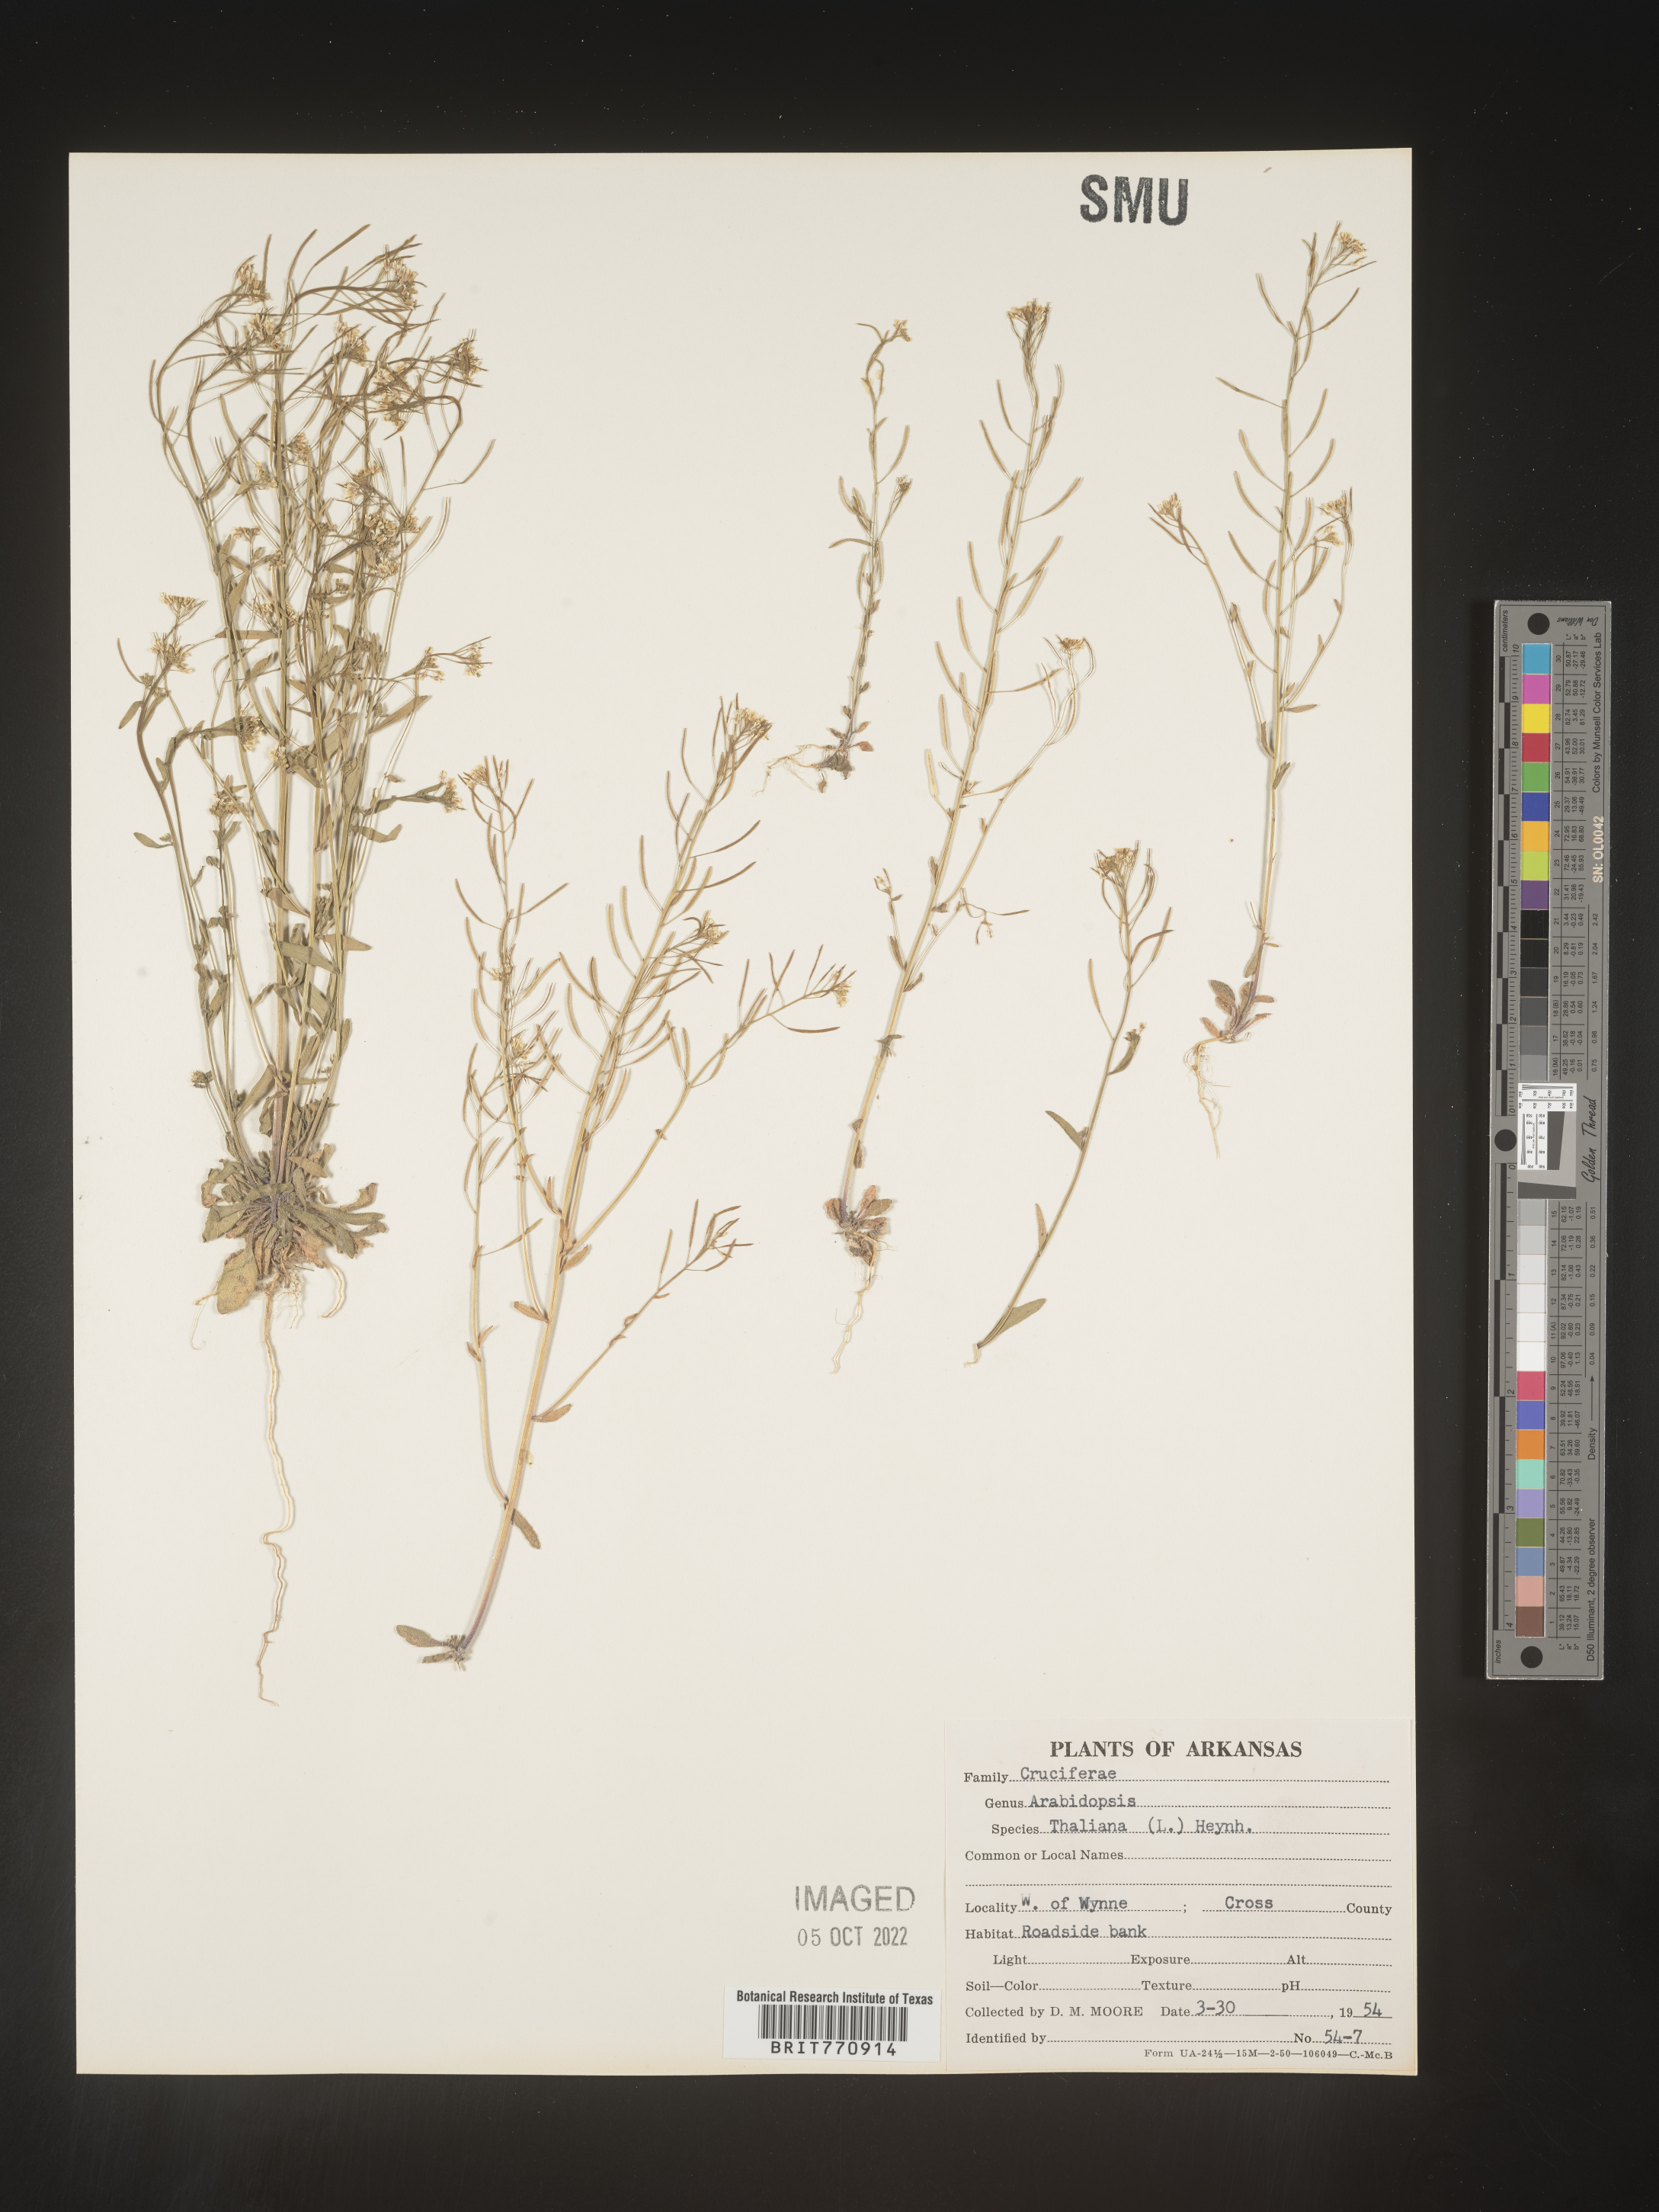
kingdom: Plantae
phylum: Tracheophyta
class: Magnoliopsida
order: Brassicales
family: Brassicaceae
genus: Arabidopsis
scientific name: Arabidopsis thaliana
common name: Thale cress
